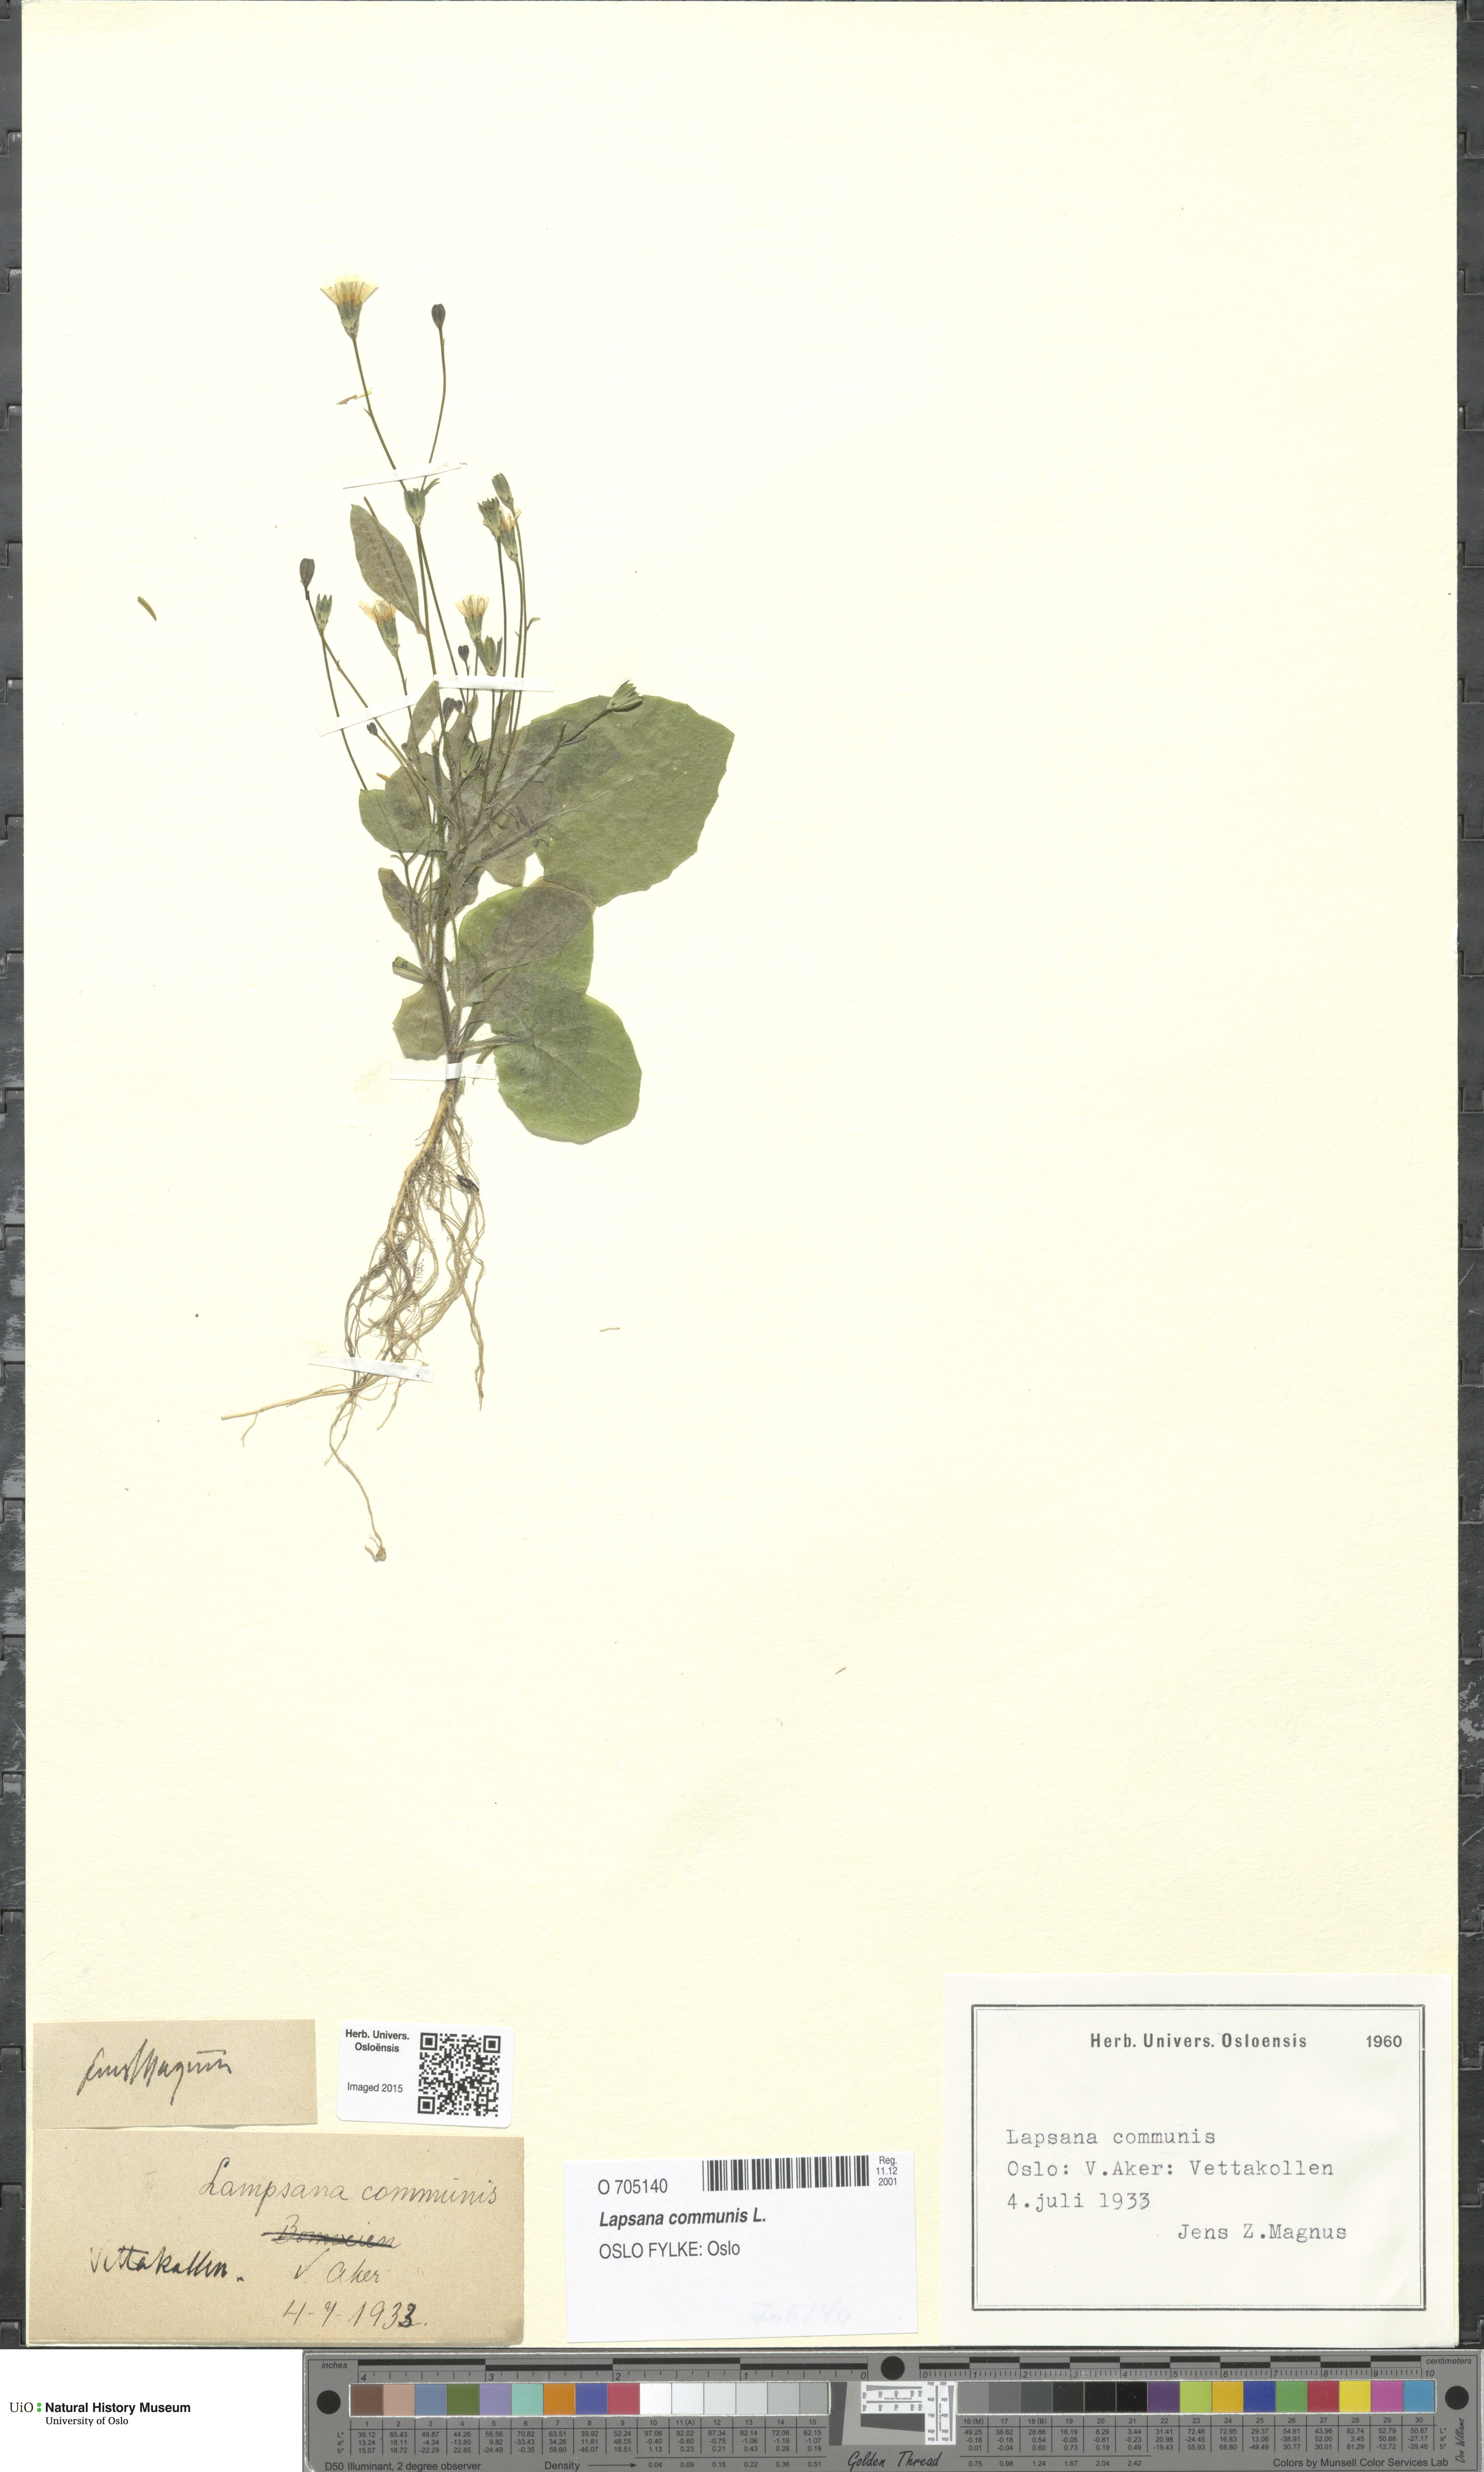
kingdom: Plantae
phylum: Tracheophyta
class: Magnoliopsida
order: Asterales
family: Asteraceae
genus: Lapsana
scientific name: Lapsana communis
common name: Nipplewort
